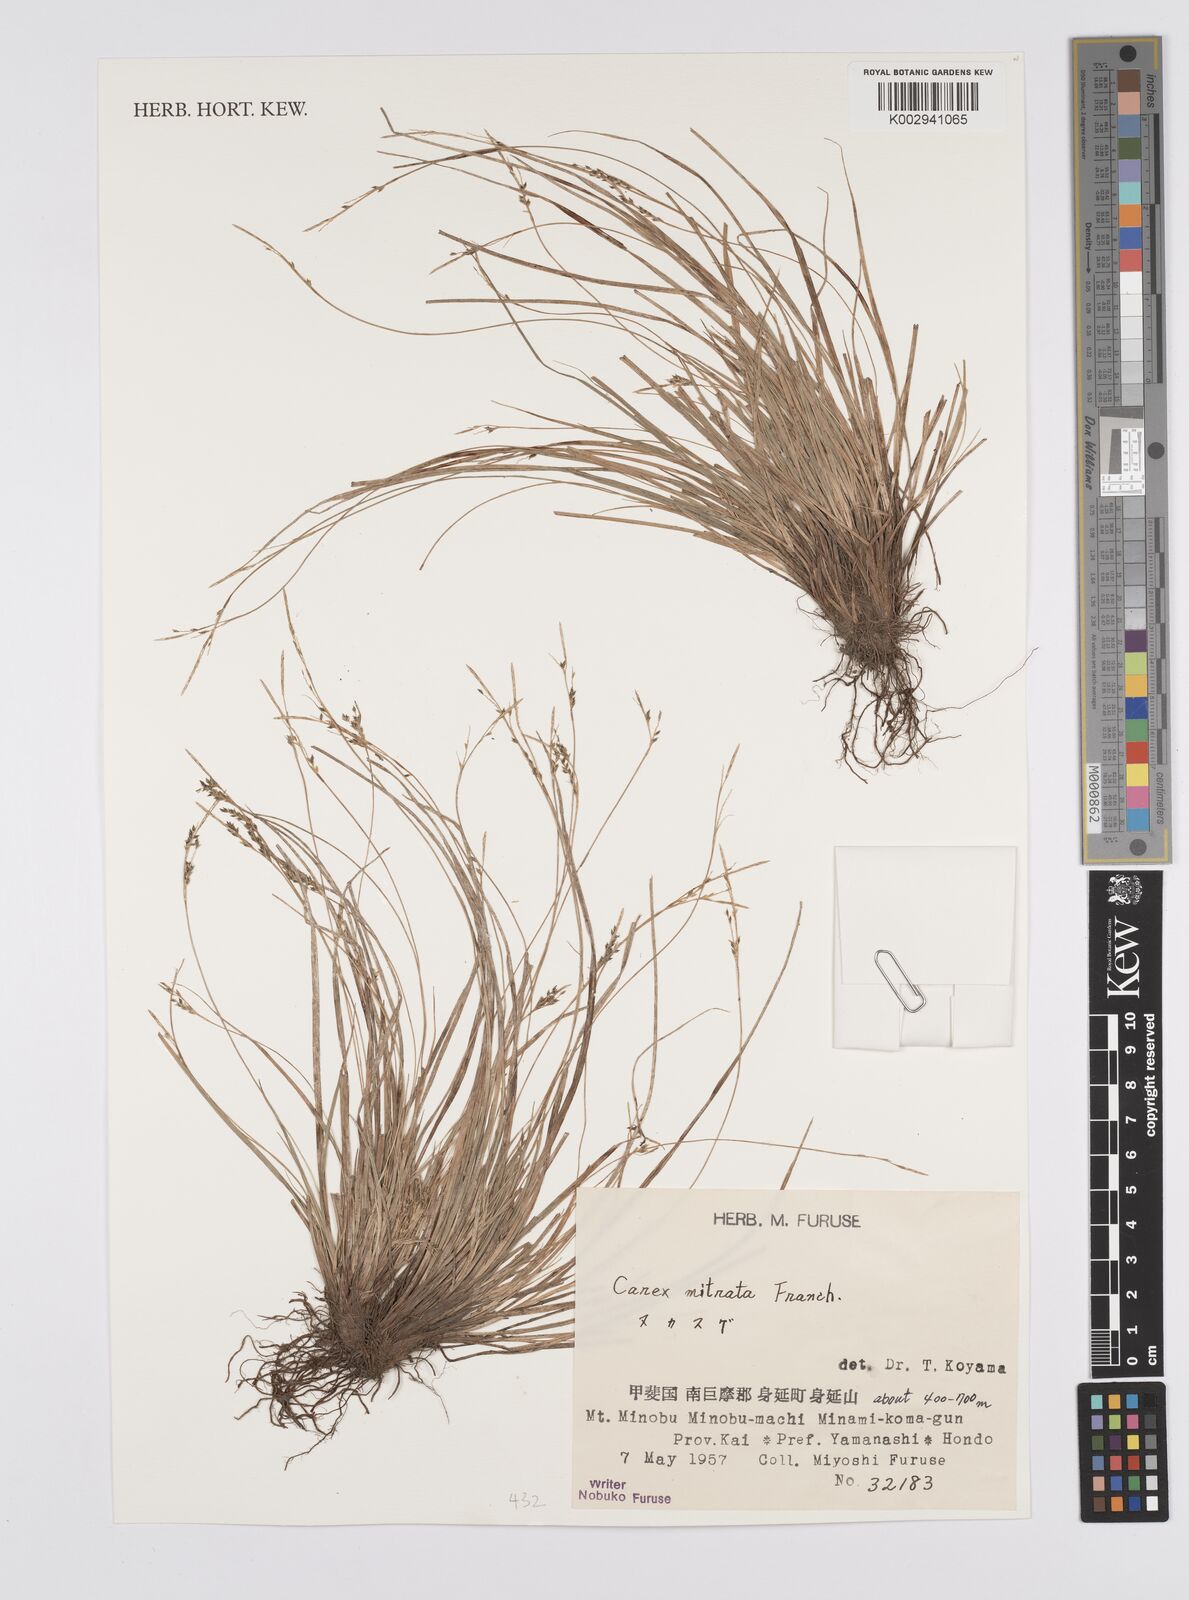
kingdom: Plantae
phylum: Tracheophyta
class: Liliopsida
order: Poales
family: Cyperaceae
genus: Carex
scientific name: Carex mitrata
